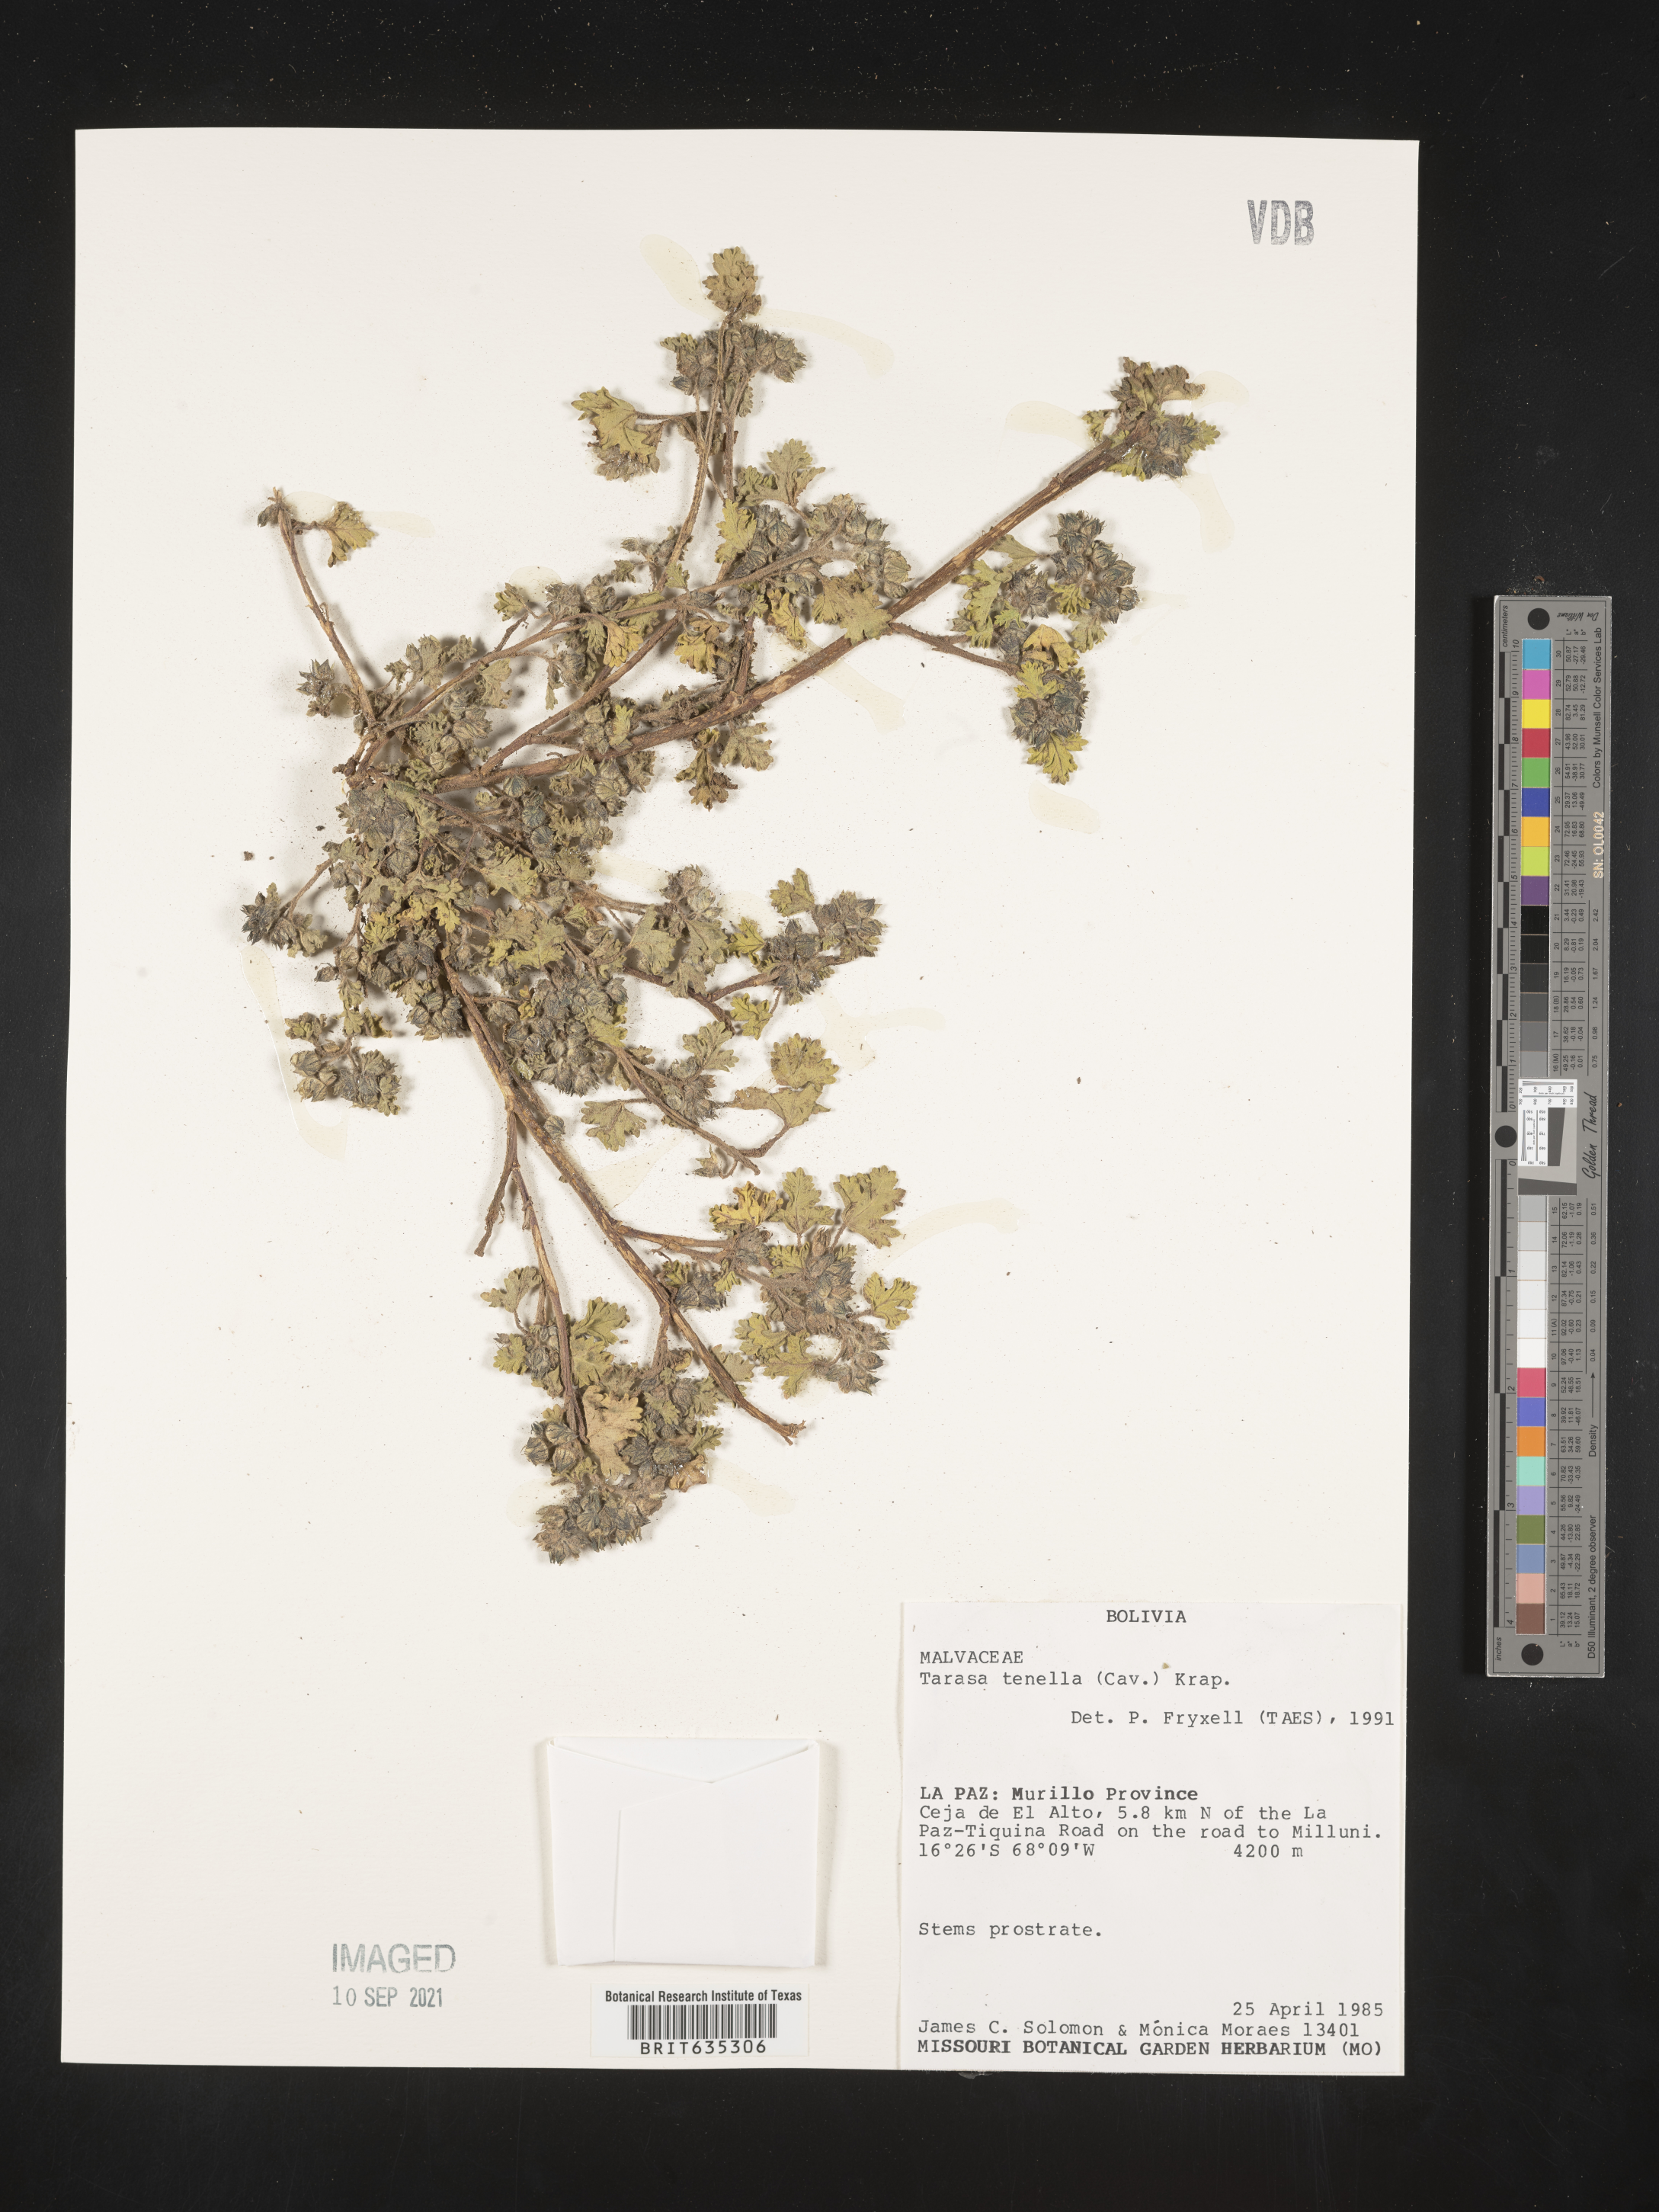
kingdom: Plantae
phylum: Tracheophyta
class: Magnoliopsida
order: Malvales
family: Malvaceae
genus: Tarasa
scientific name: Tarasa tenella
